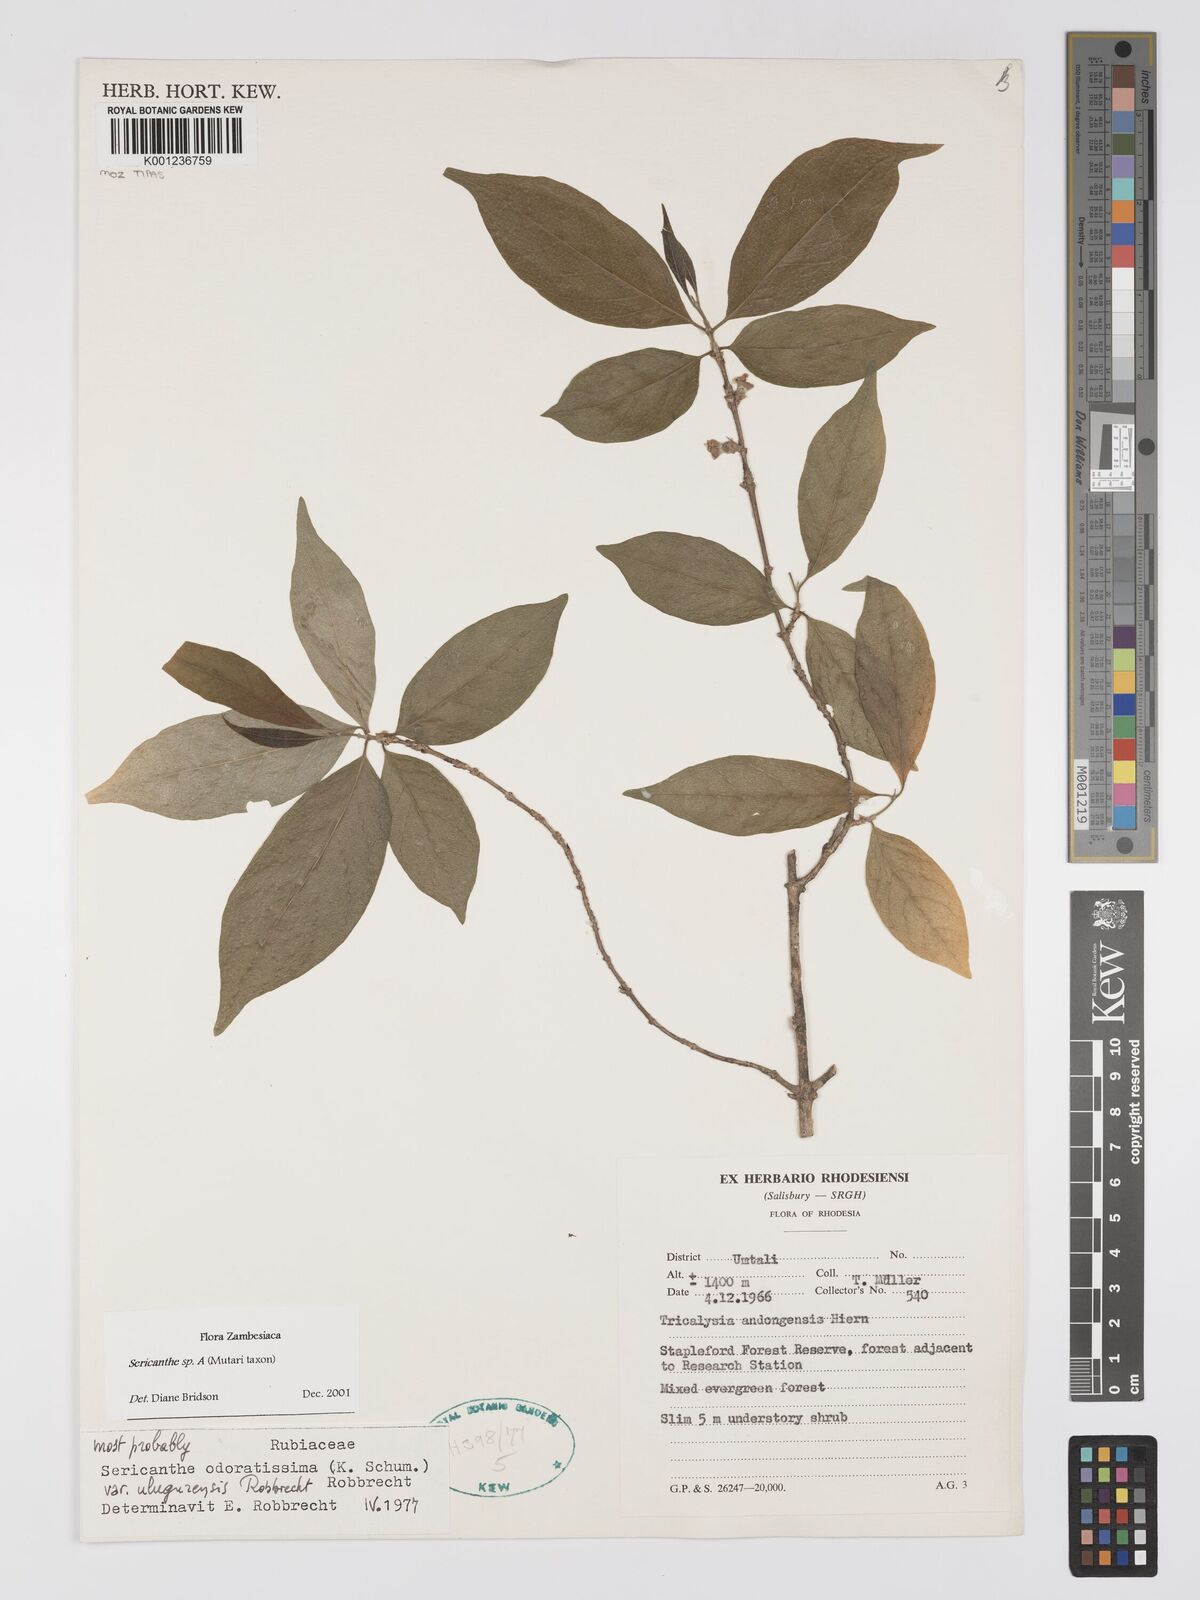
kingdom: Plantae
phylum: Tracheophyta
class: Magnoliopsida
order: Gentianales
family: Rubiaceae
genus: Sericanthe
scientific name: Sericanthe
